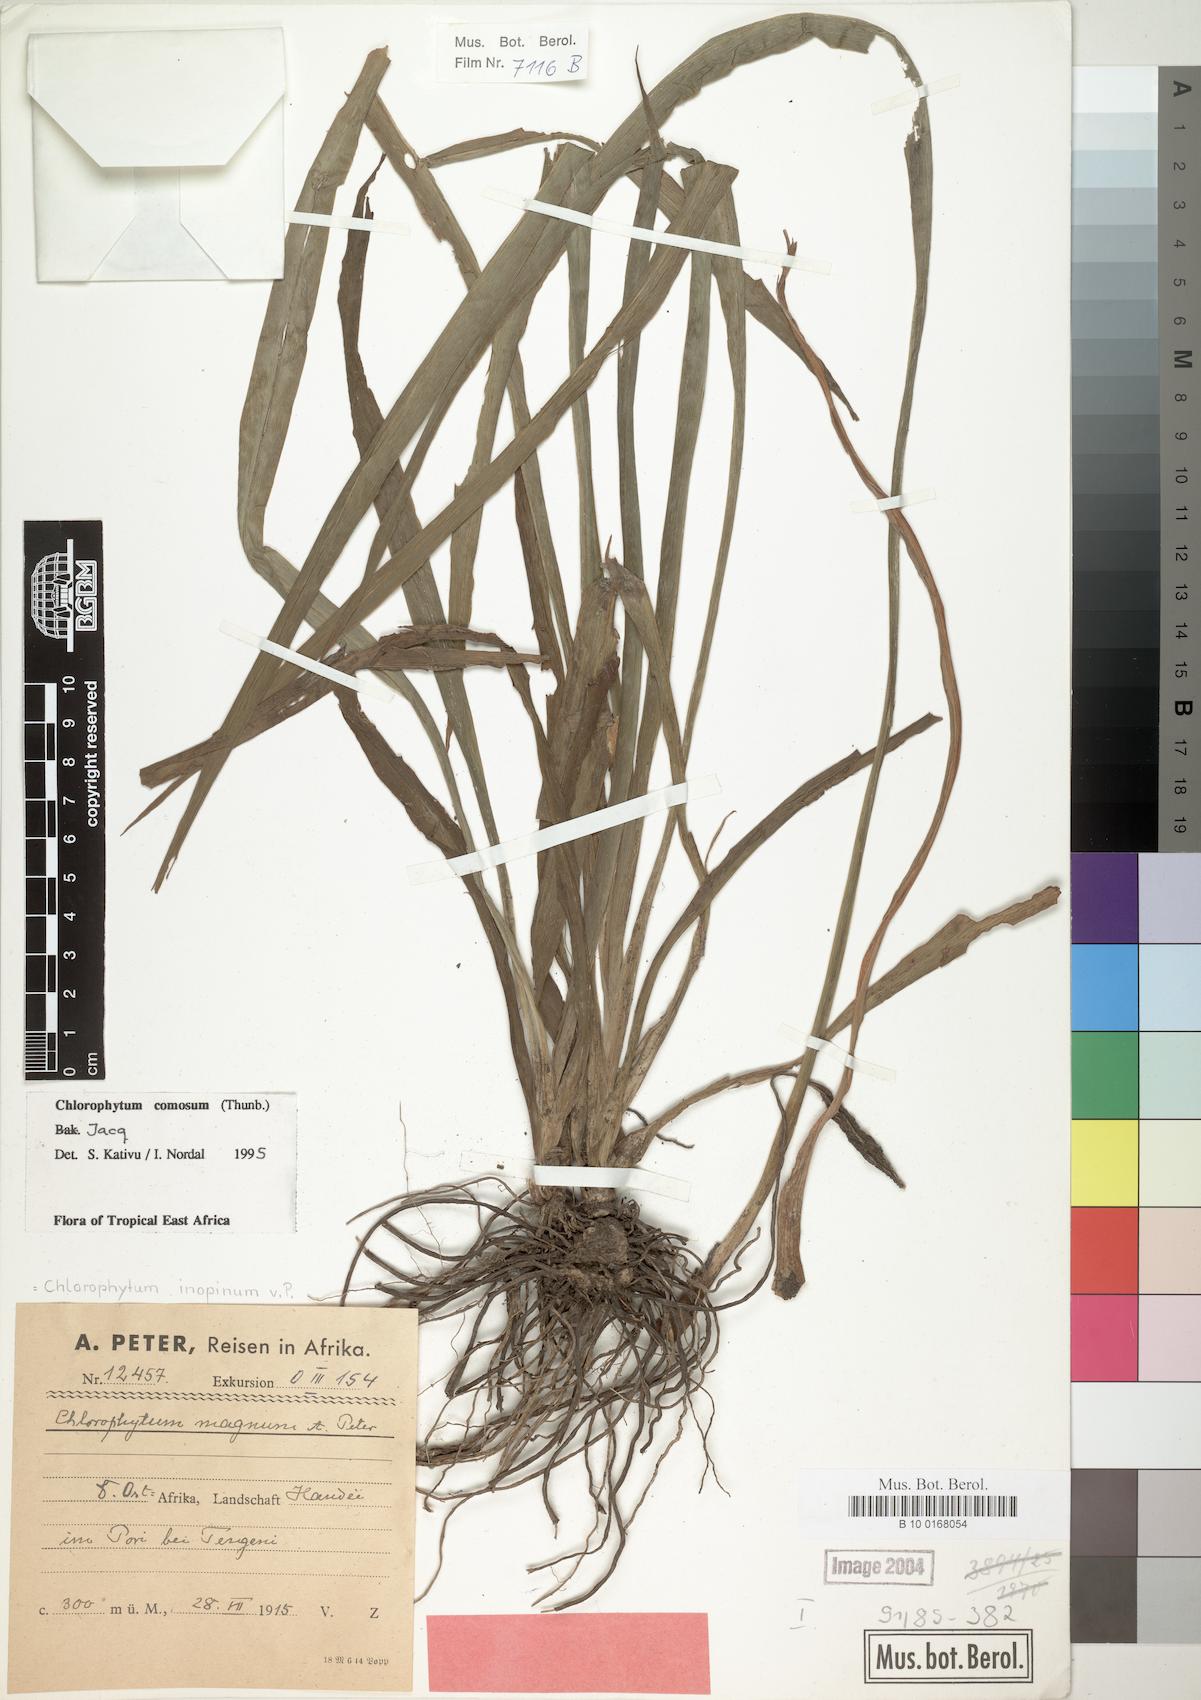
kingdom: Plantae
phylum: Tracheophyta
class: Liliopsida
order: Asparagales
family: Asparagaceae
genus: Chlorophytum
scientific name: Chlorophytum comosum
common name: Spider plant
